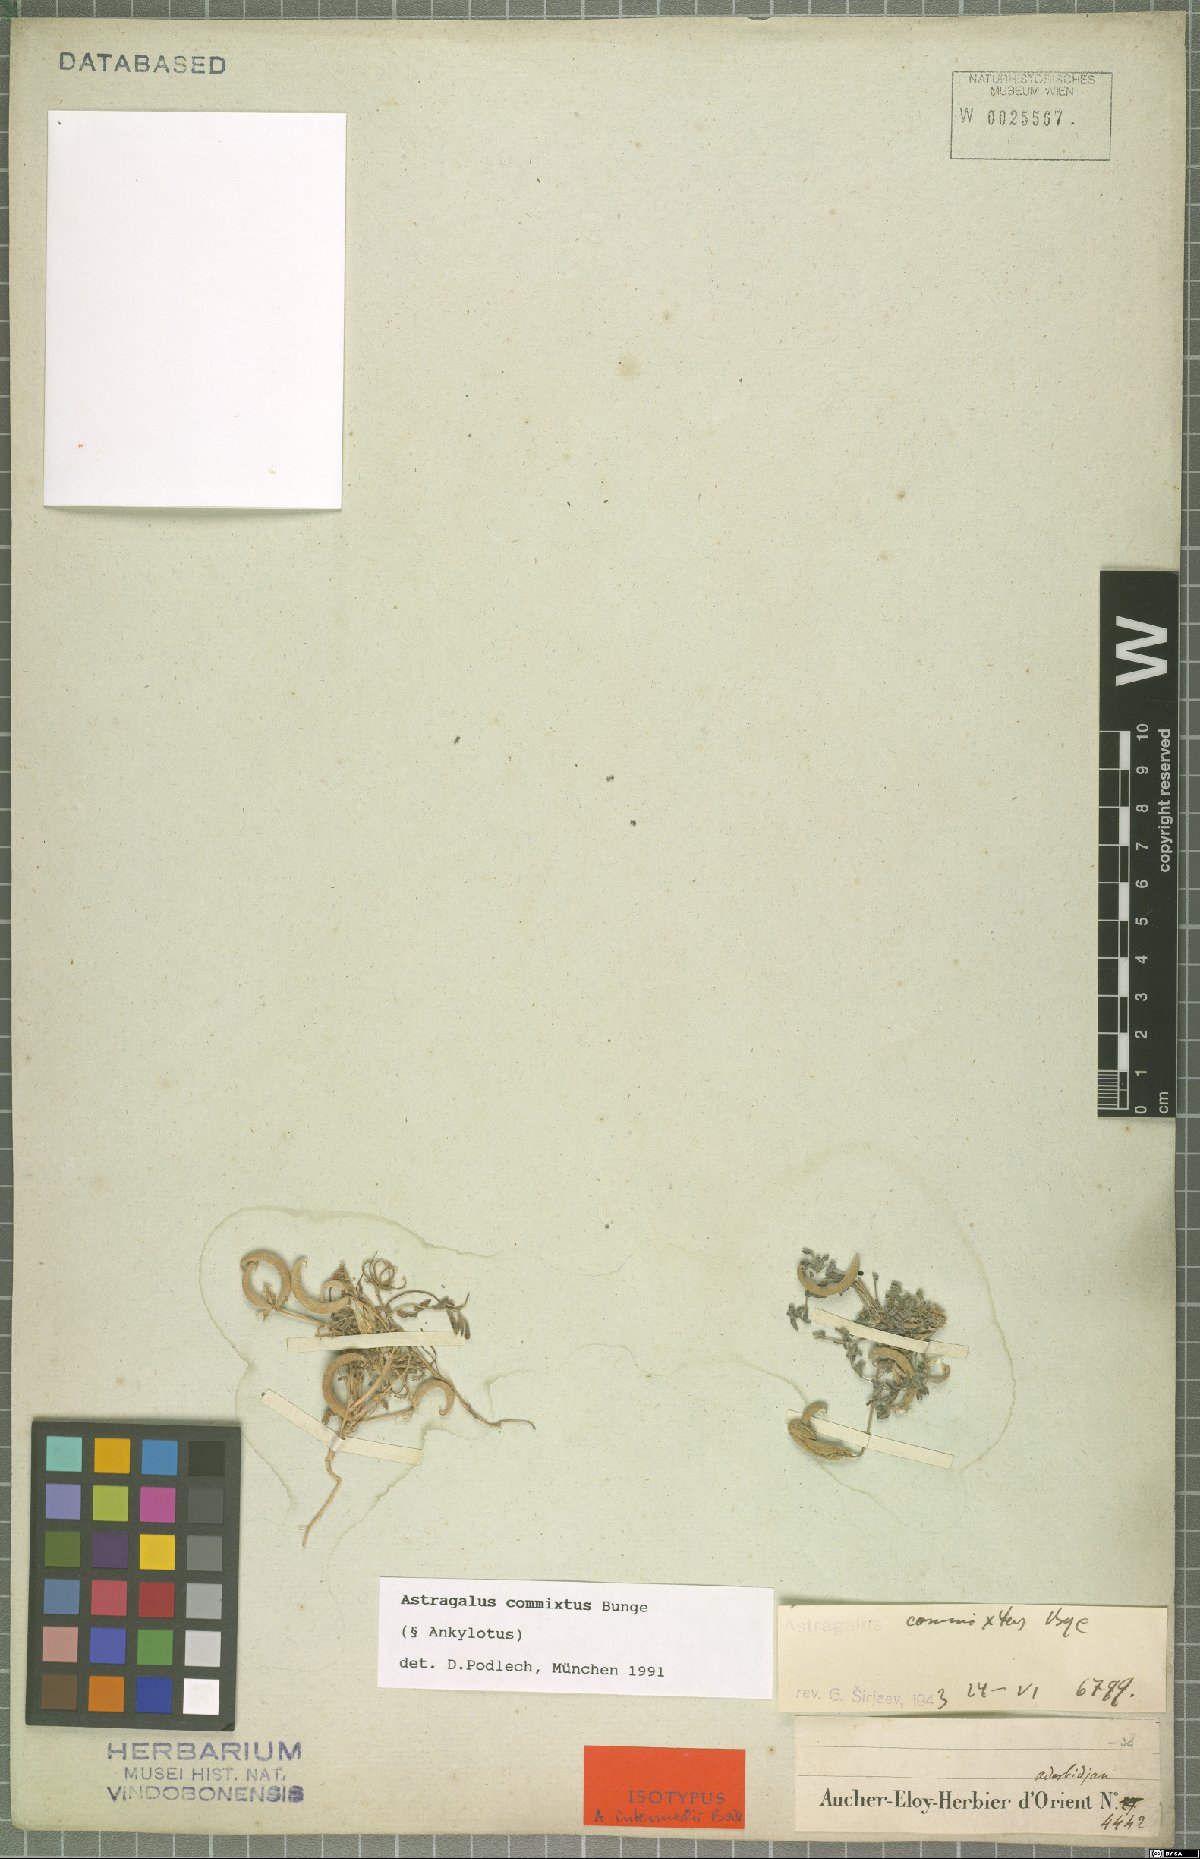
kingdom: Plantae
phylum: Tracheophyta
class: Magnoliopsida
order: Fabales
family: Fabaceae
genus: Astragalus
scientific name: Astragalus commixtus
